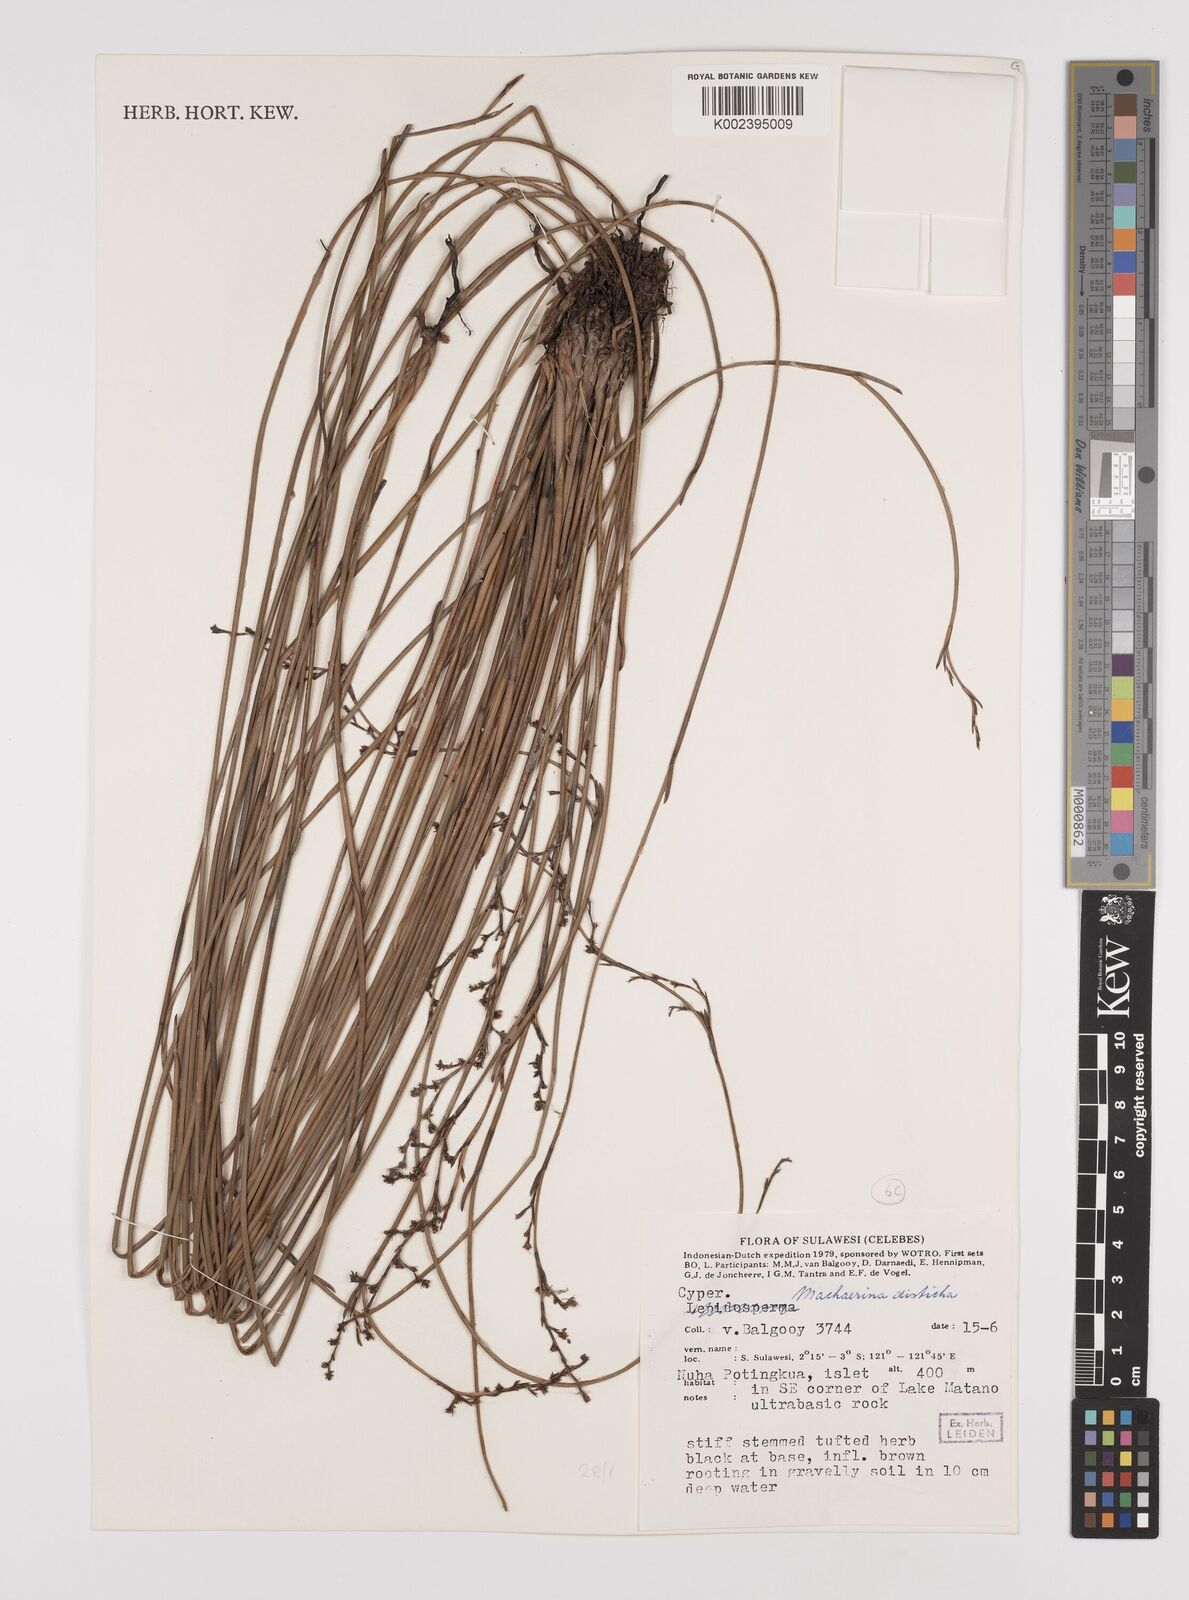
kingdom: Plantae
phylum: Tracheophyta
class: Liliopsida
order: Poales
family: Cyperaceae
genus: Machaerina
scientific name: Machaerina disticha
